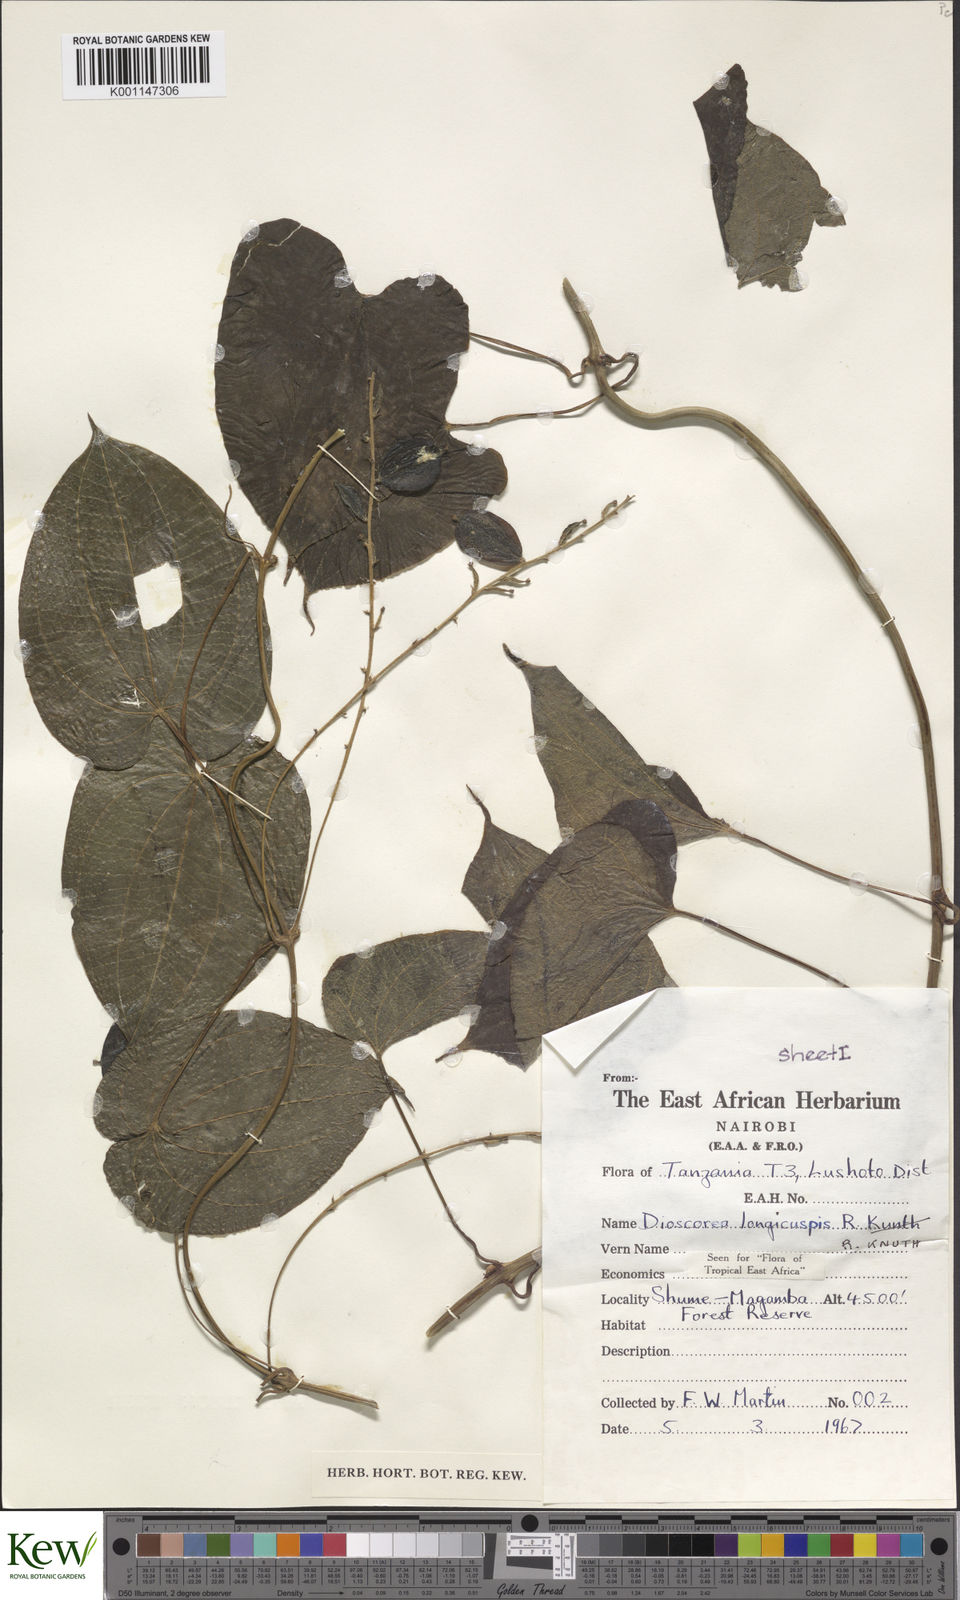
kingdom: Plantae
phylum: Tracheophyta
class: Liliopsida
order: Dioscoreales
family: Dioscoreaceae
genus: Dioscorea
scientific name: Dioscorea longicuspis
